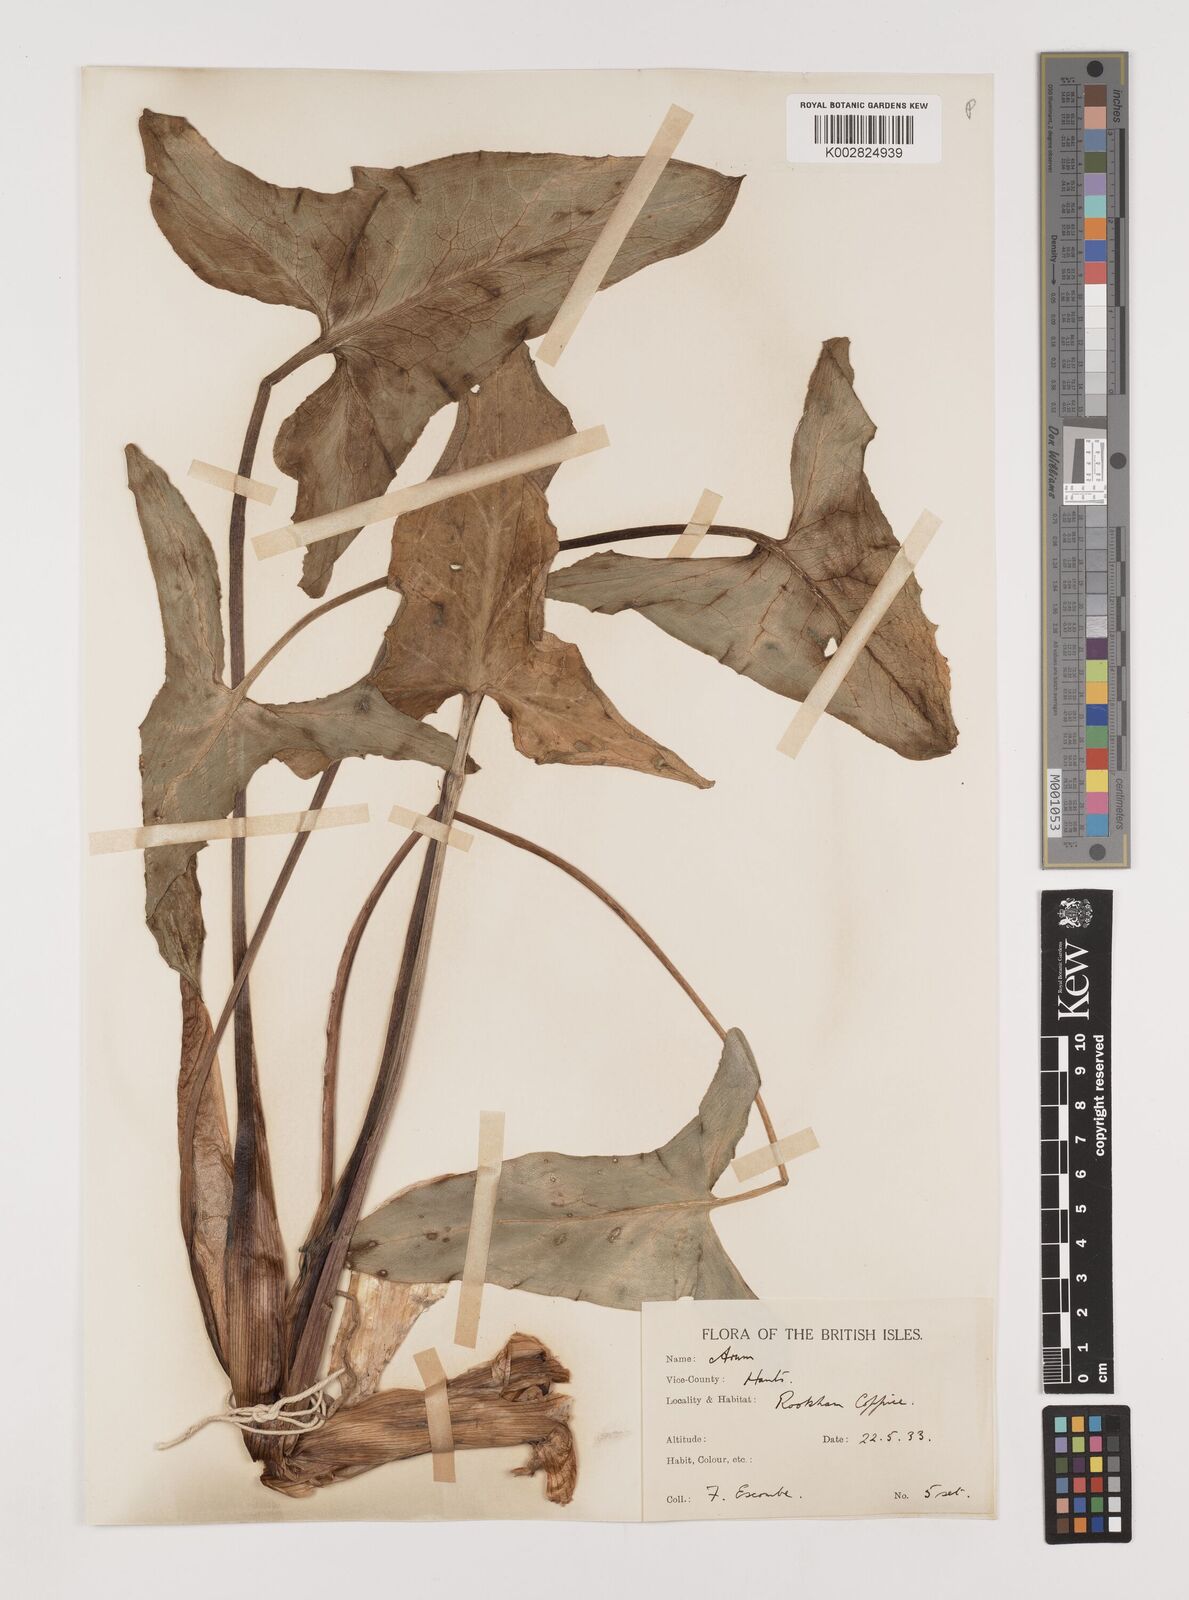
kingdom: Plantae
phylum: Tracheophyta
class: Liliopsida
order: Alismatales
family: Araceae
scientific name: Araceae
